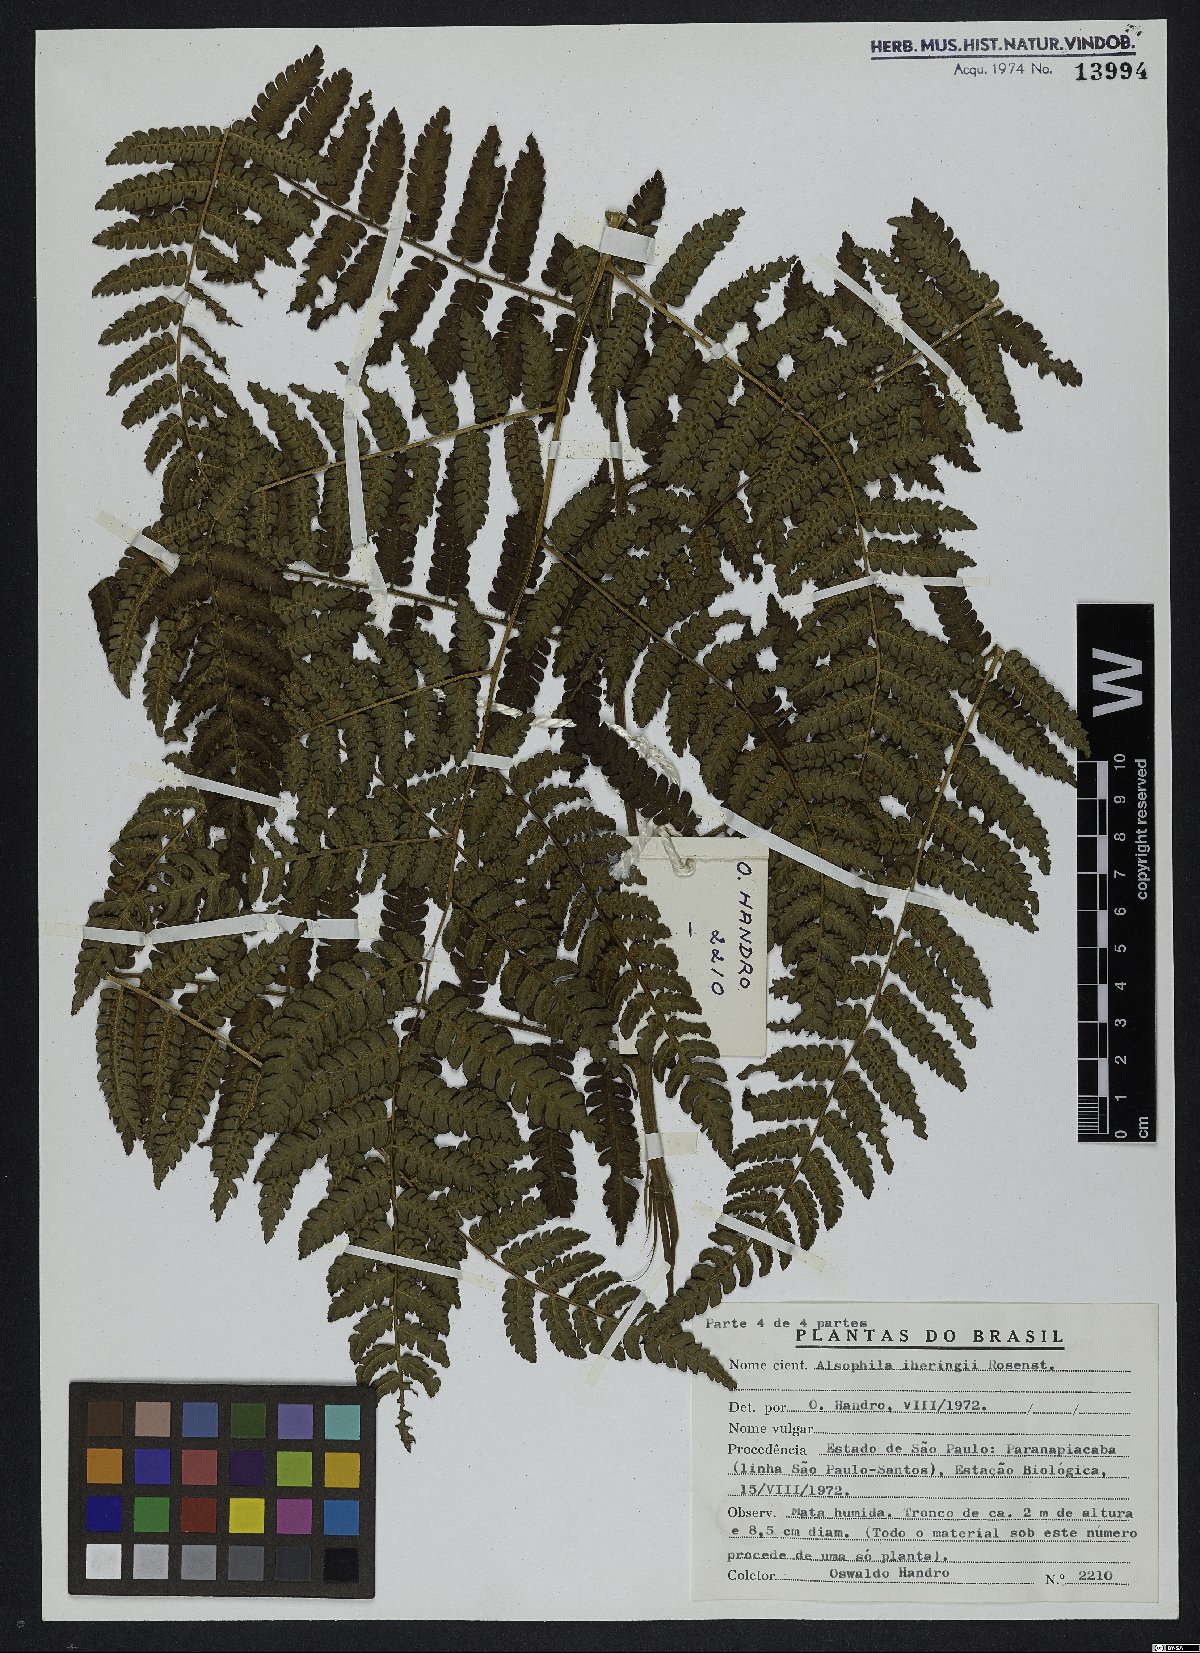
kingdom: Plantae
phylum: Tracheophyta
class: Polypodiopsida
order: Cyatheales
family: Cyatheaceae
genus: Cyathea
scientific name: Cyathea iheringii
